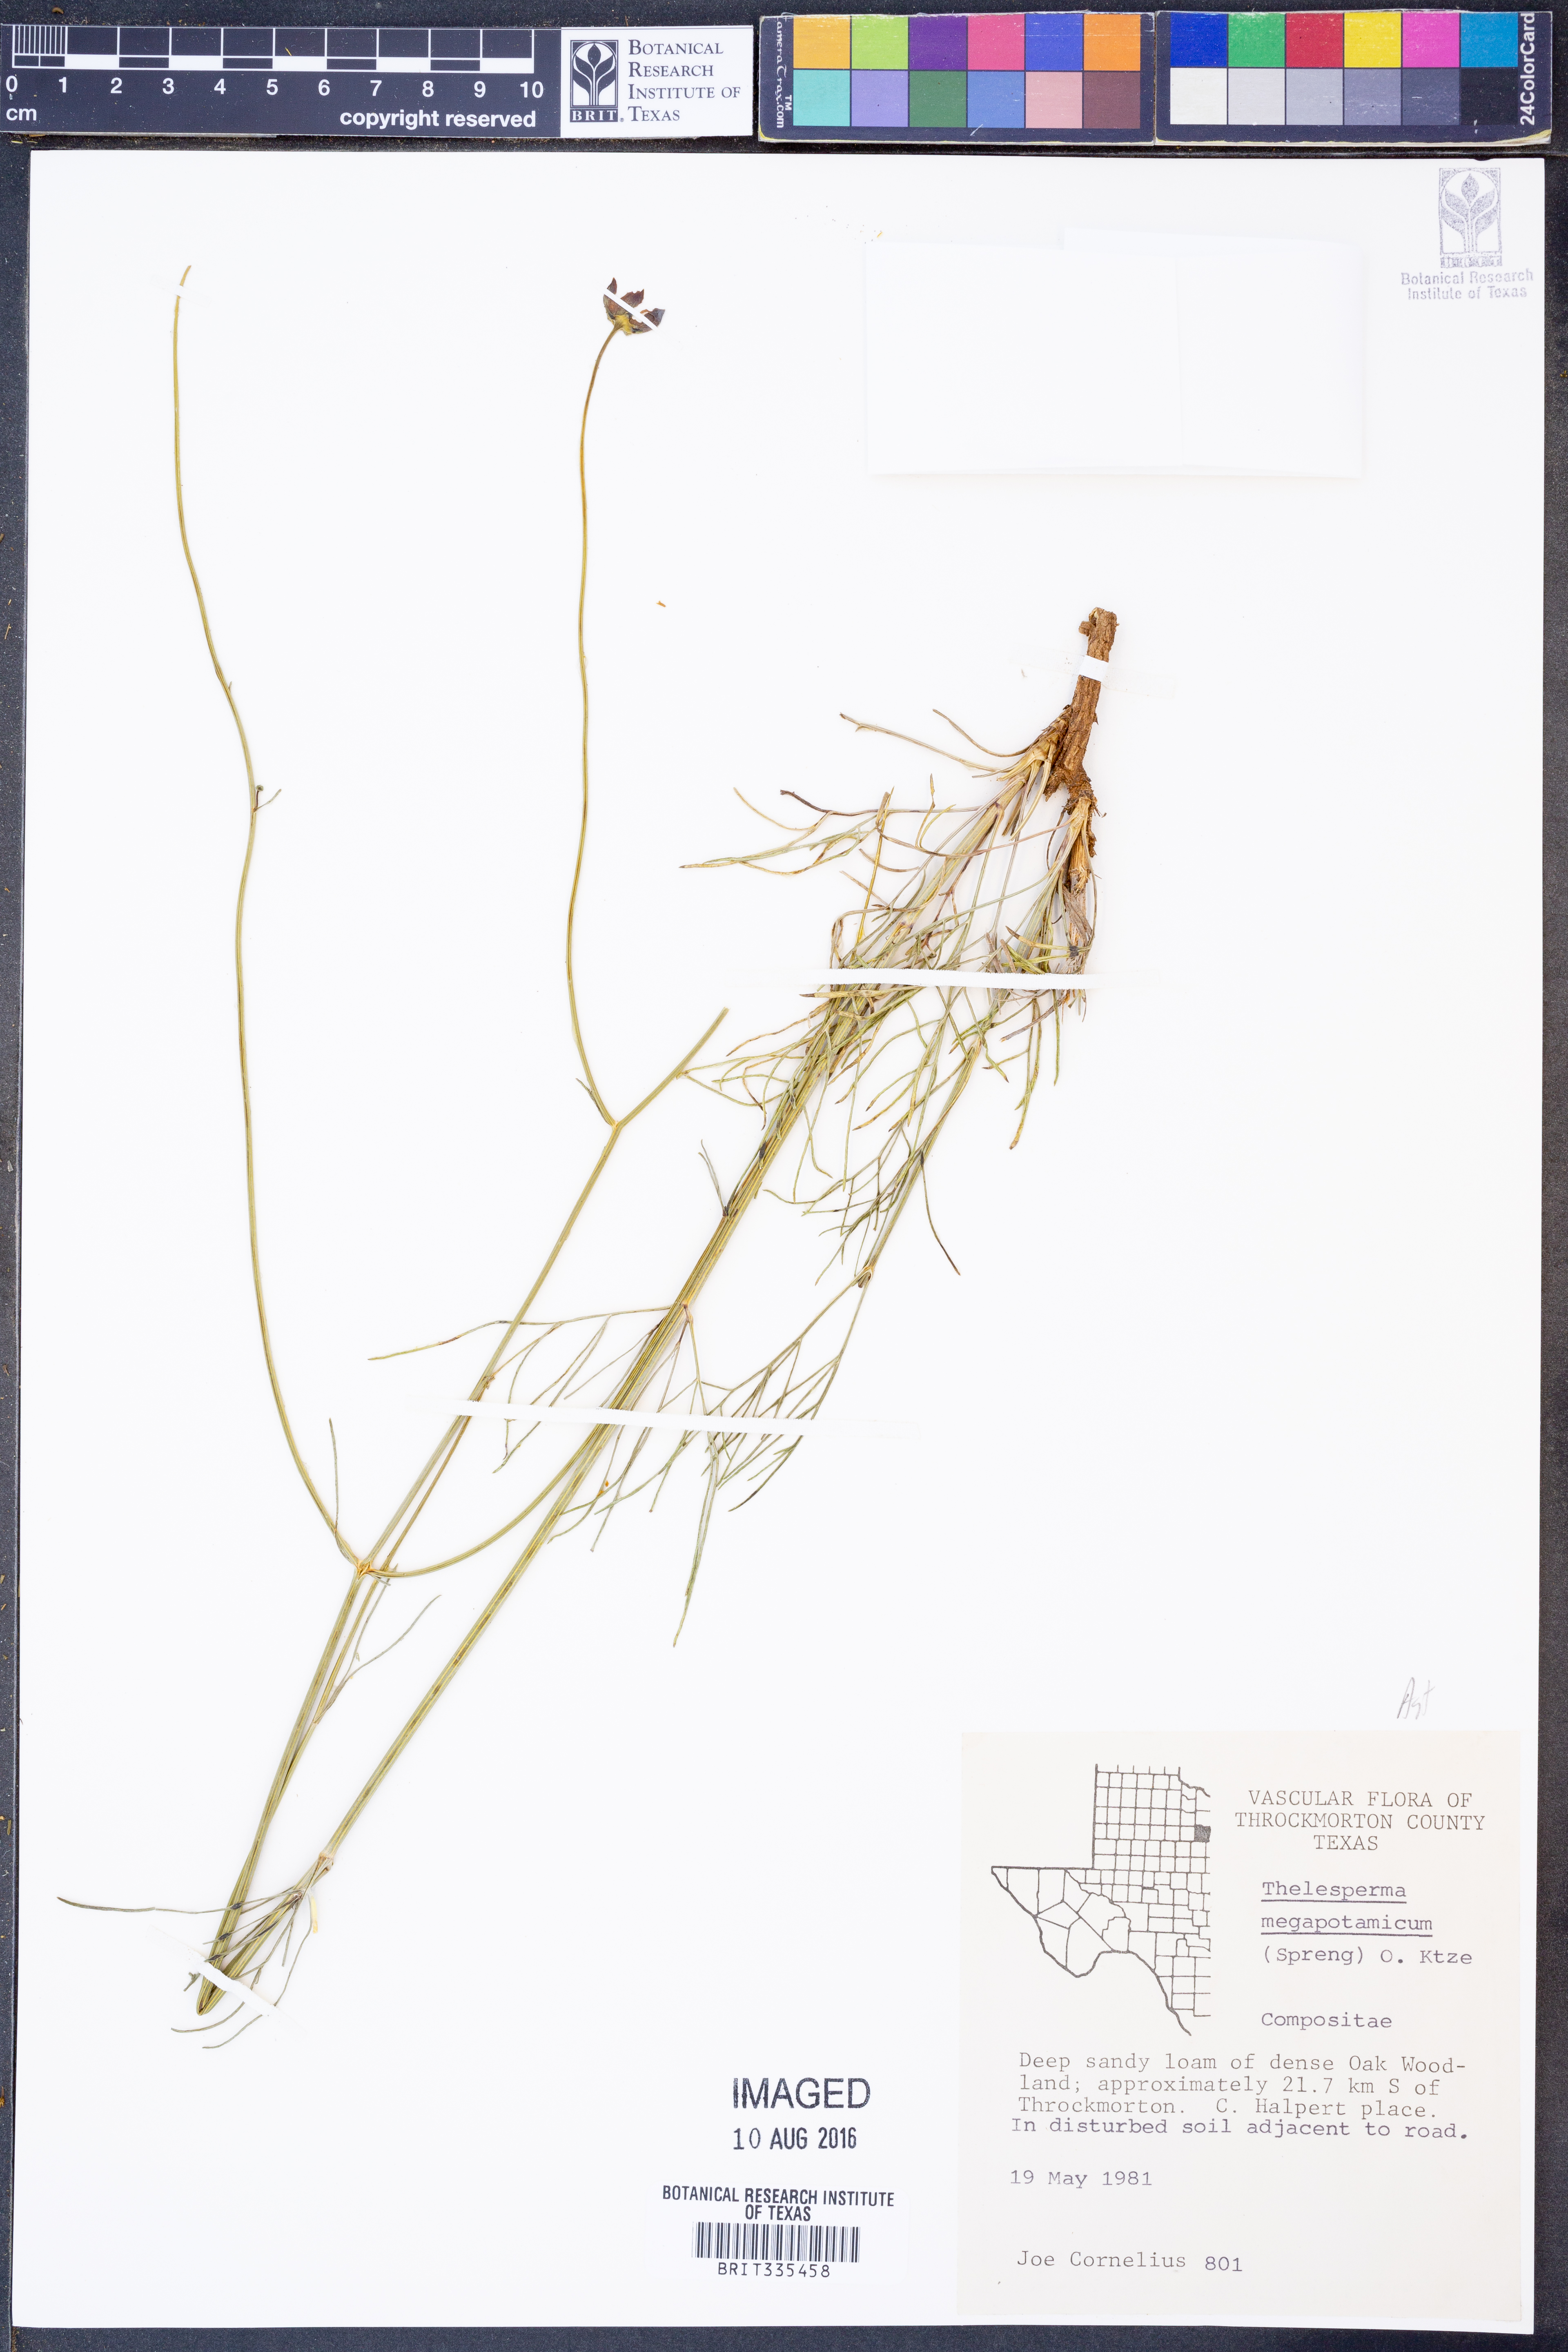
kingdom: Plantae
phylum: Tracheophyta
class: Magnoliopsida
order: Asterales
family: Asteraceae
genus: Thelesperma
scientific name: Thelesperma megapotamicum
